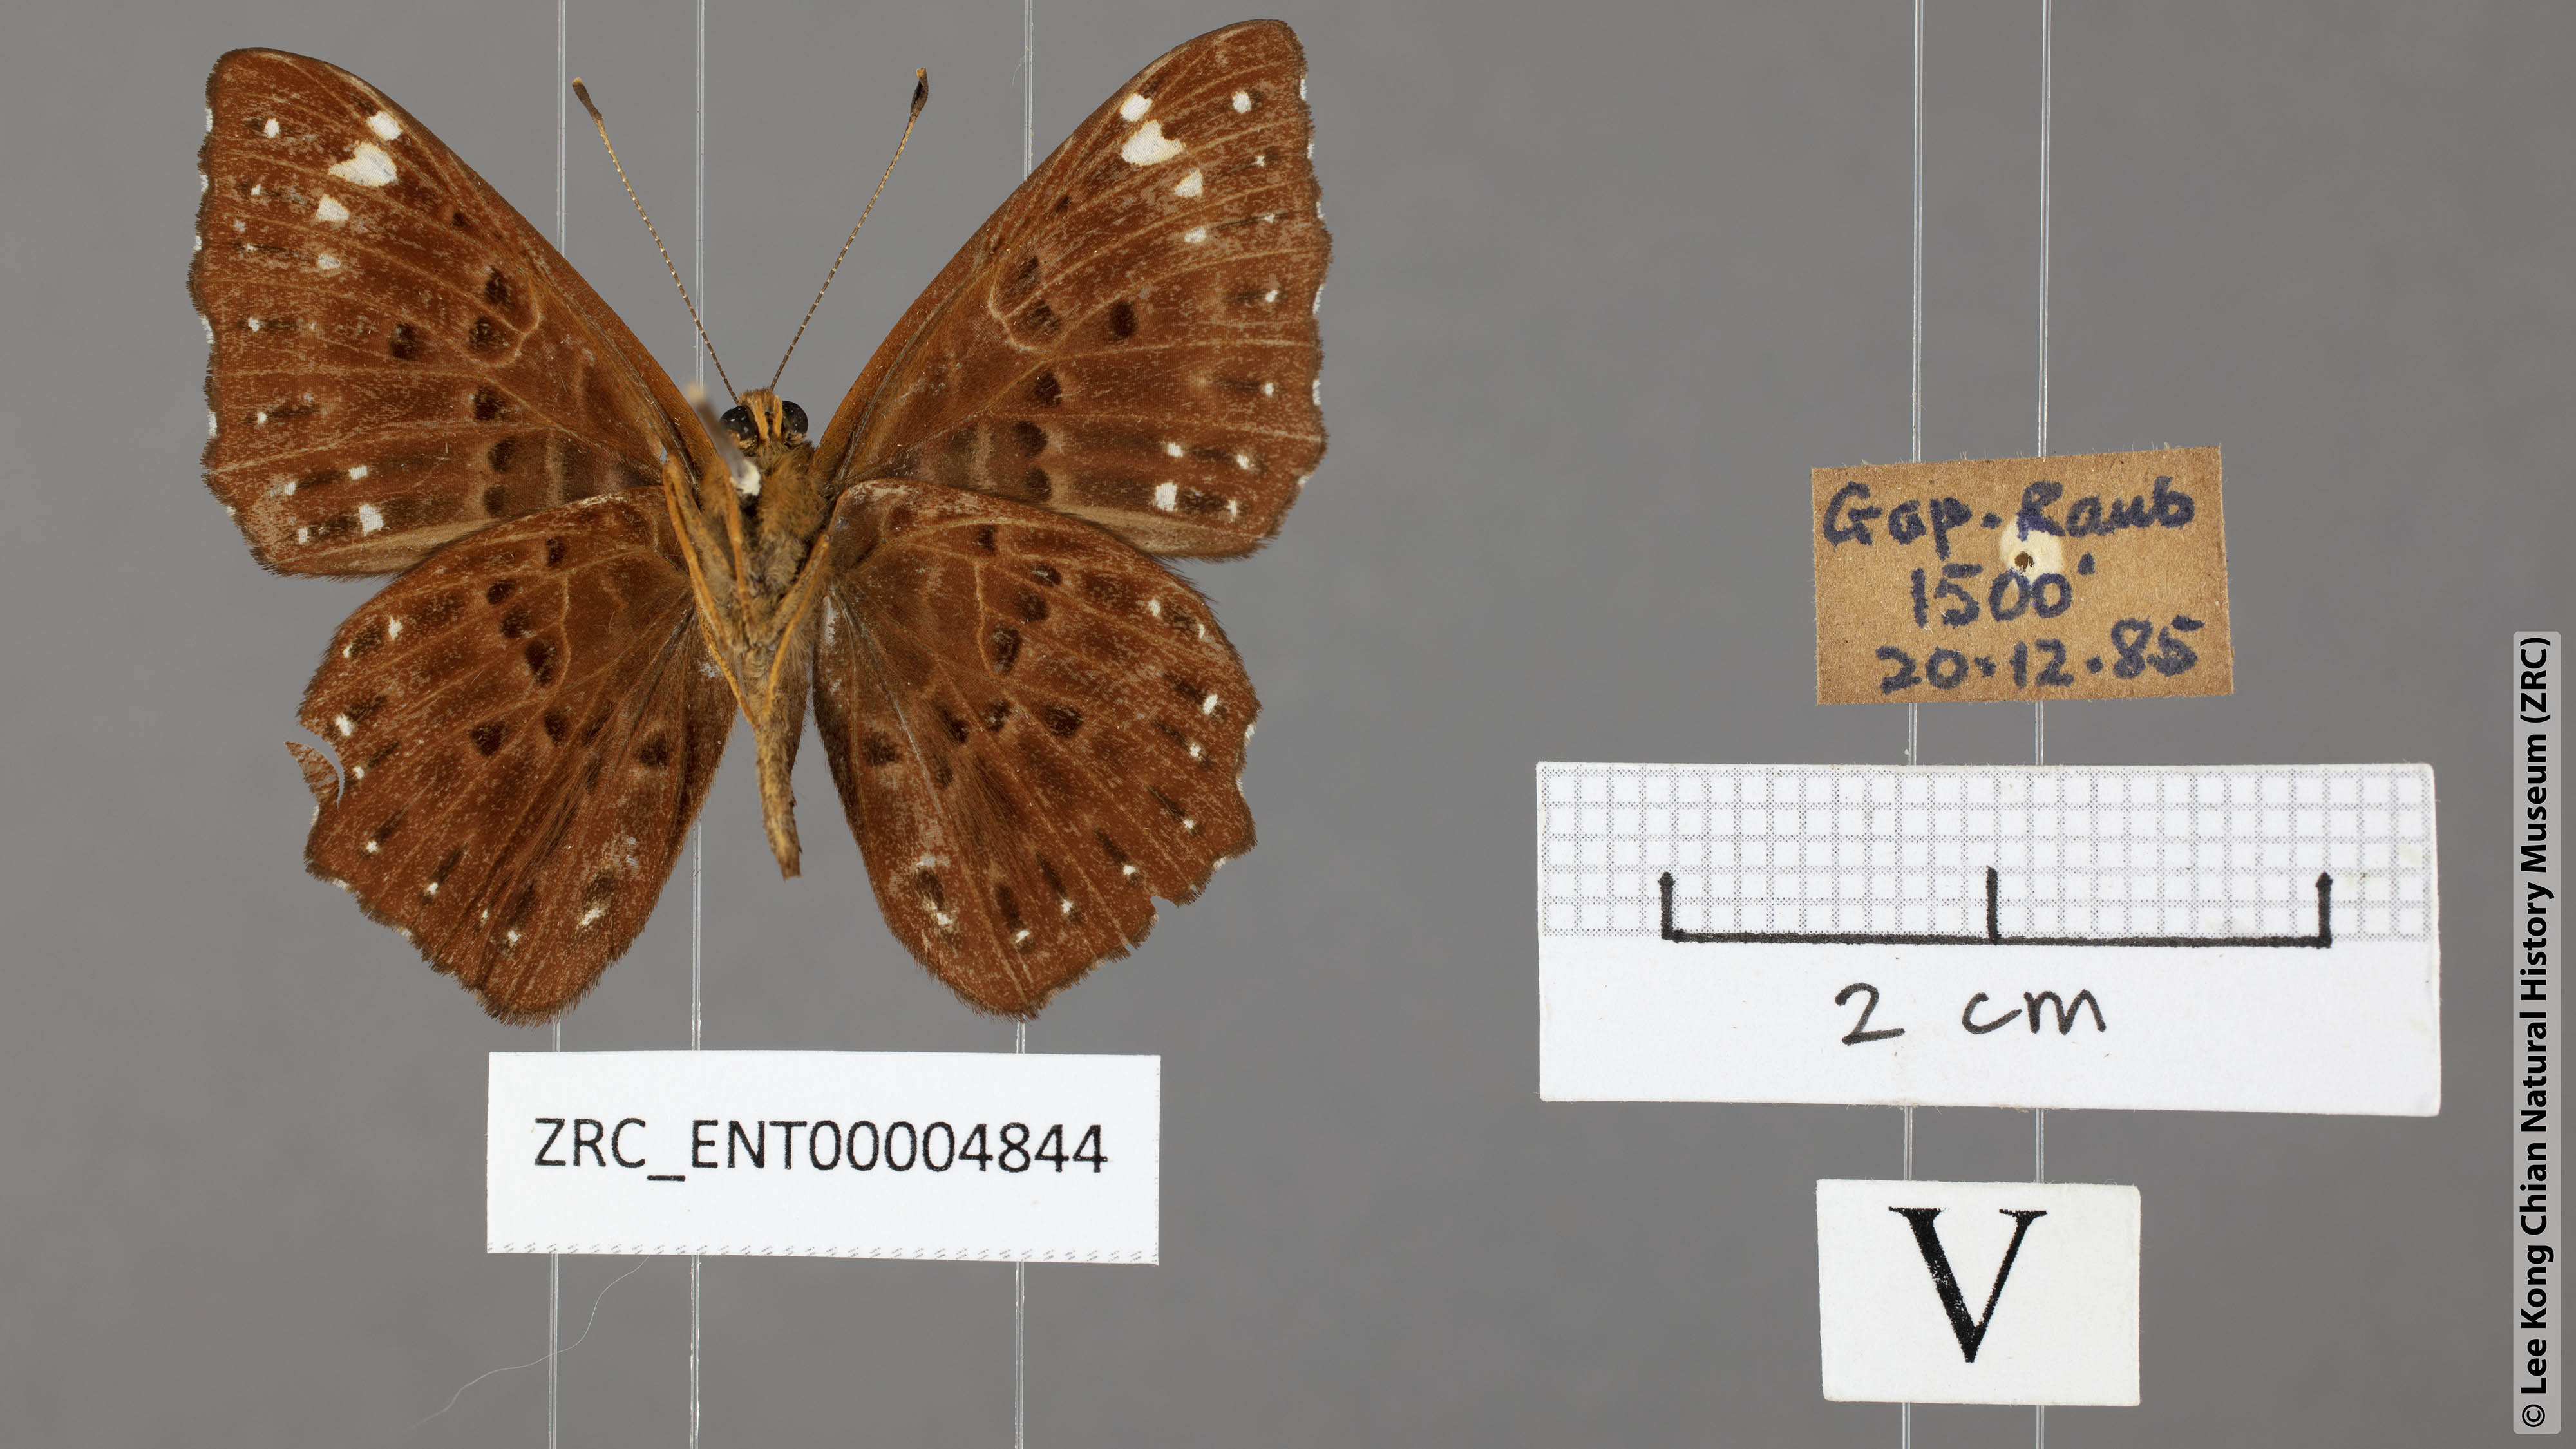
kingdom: Animalia
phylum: Arthropoda
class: Insecta
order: Lepidoptera
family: Riodinidae
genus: Zemeros
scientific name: Zemeros flegyas
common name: Punchinello
